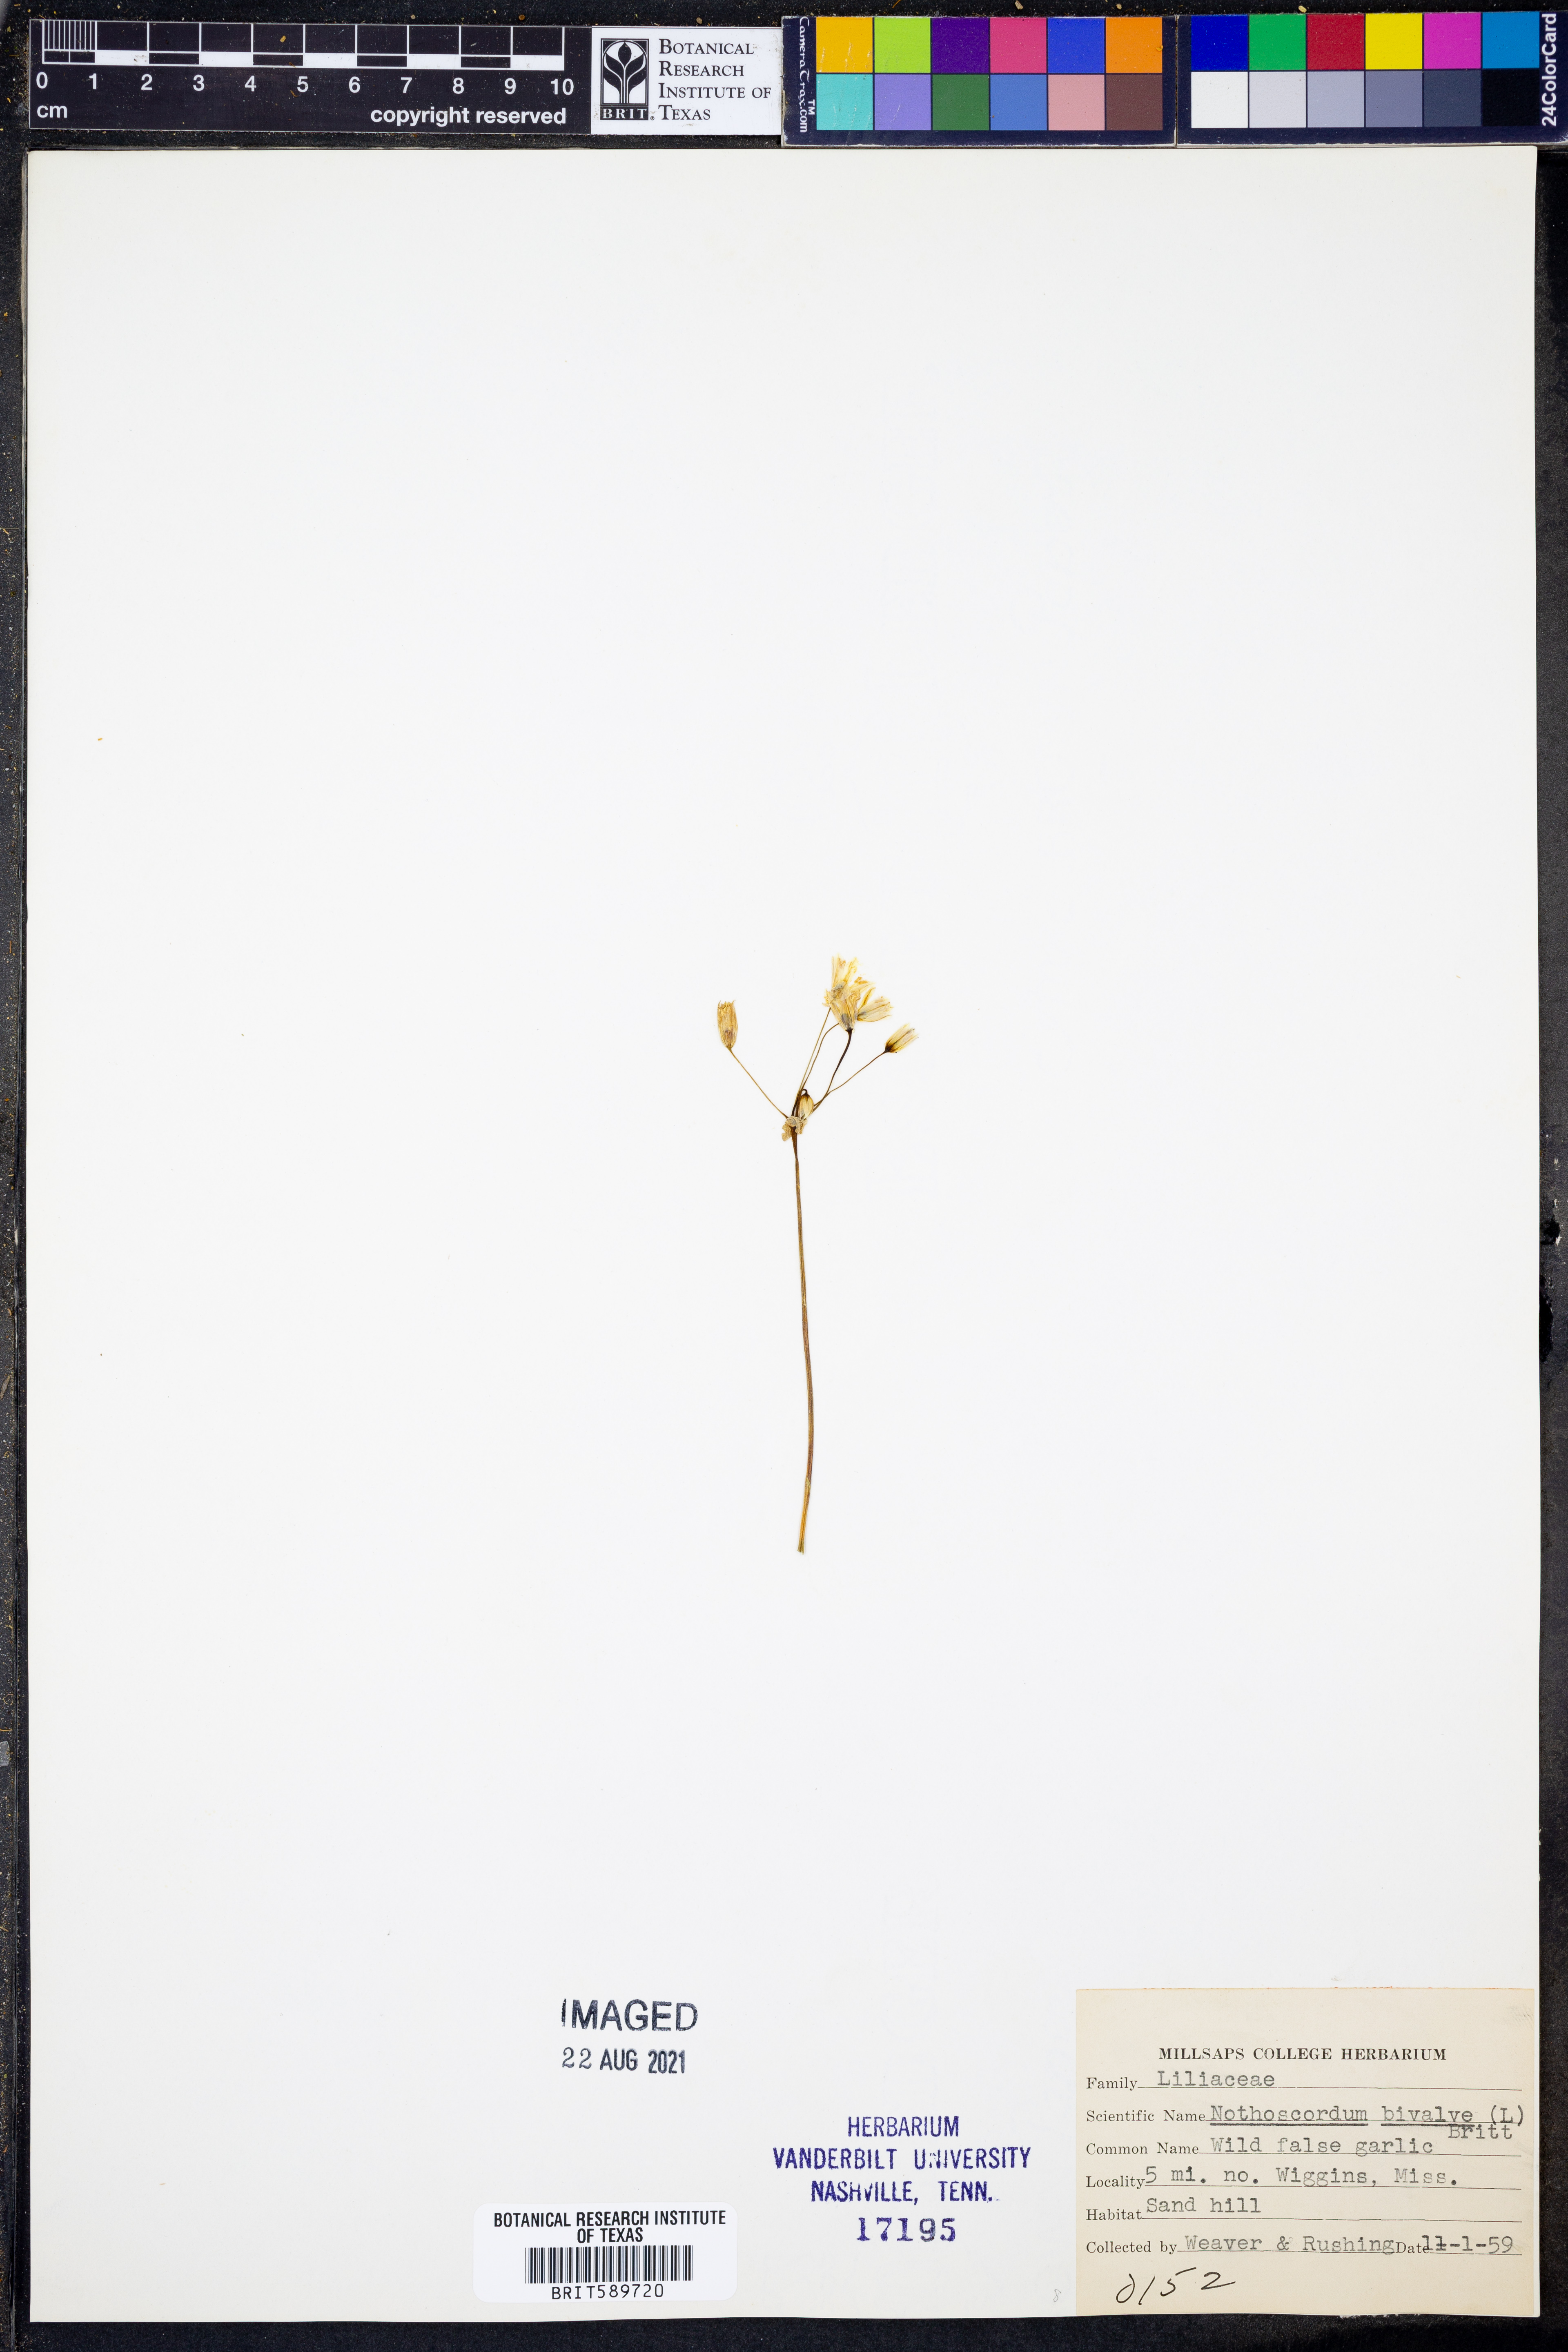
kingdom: Plantae
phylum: Tracheophyta
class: Liliopsida
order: Asparagales
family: Amaryllidaceae
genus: Nothoscordum
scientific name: Nothoscordum bivalve
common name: Crow-poison
